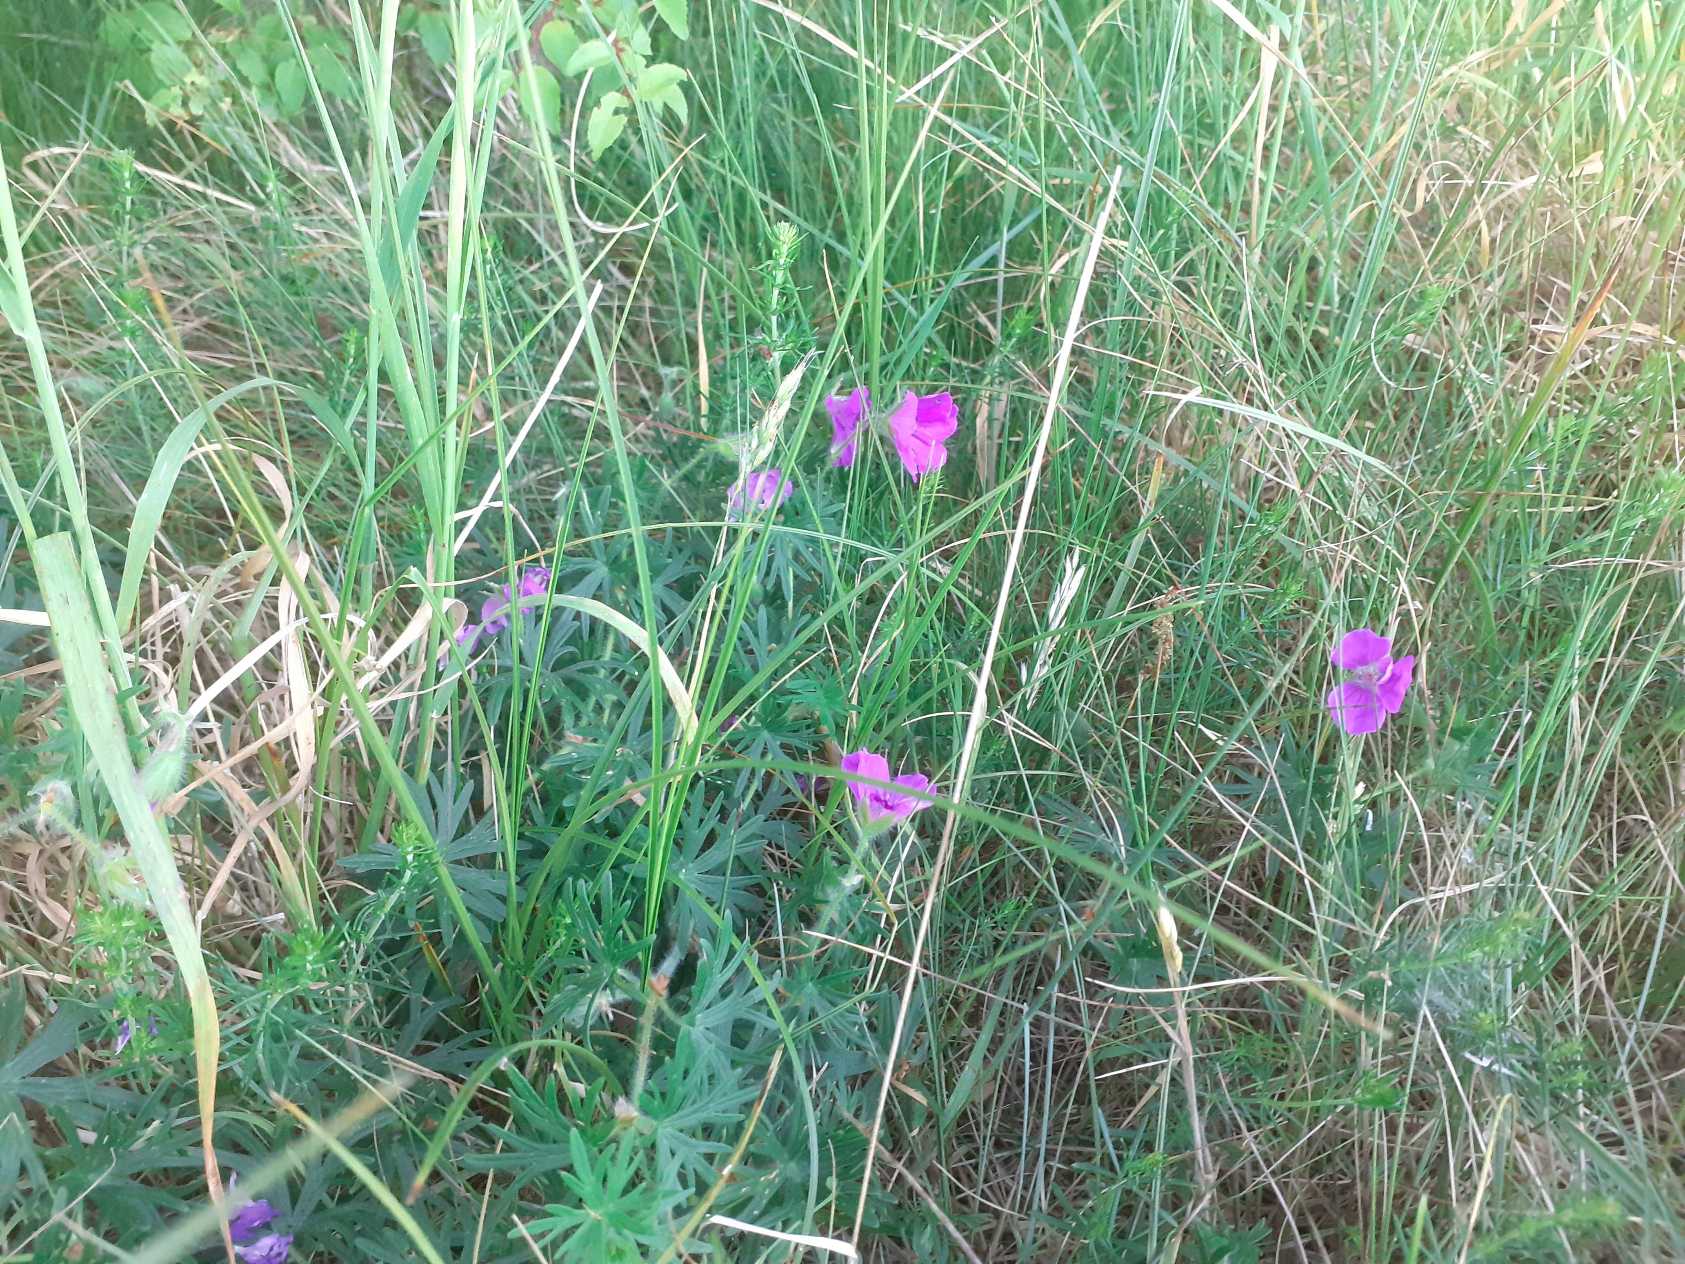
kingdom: Plantae
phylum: Tracheophyta
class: Magnoliopsida
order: Geraniales
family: Geraniaceae
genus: Geranium
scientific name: Geranium sanguineum
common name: Blodrød storkenæb
